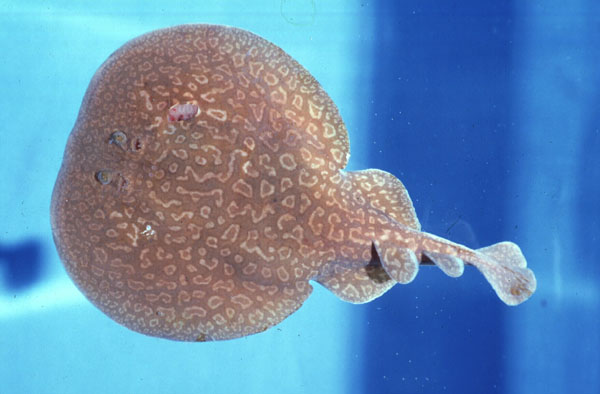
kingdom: Animalia
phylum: Chordata
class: Elasmobranchii
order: Torpediniformes
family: Torpedinidae
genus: Torpedo
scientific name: Torpedo sinuspersici
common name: Marbled electric ray
